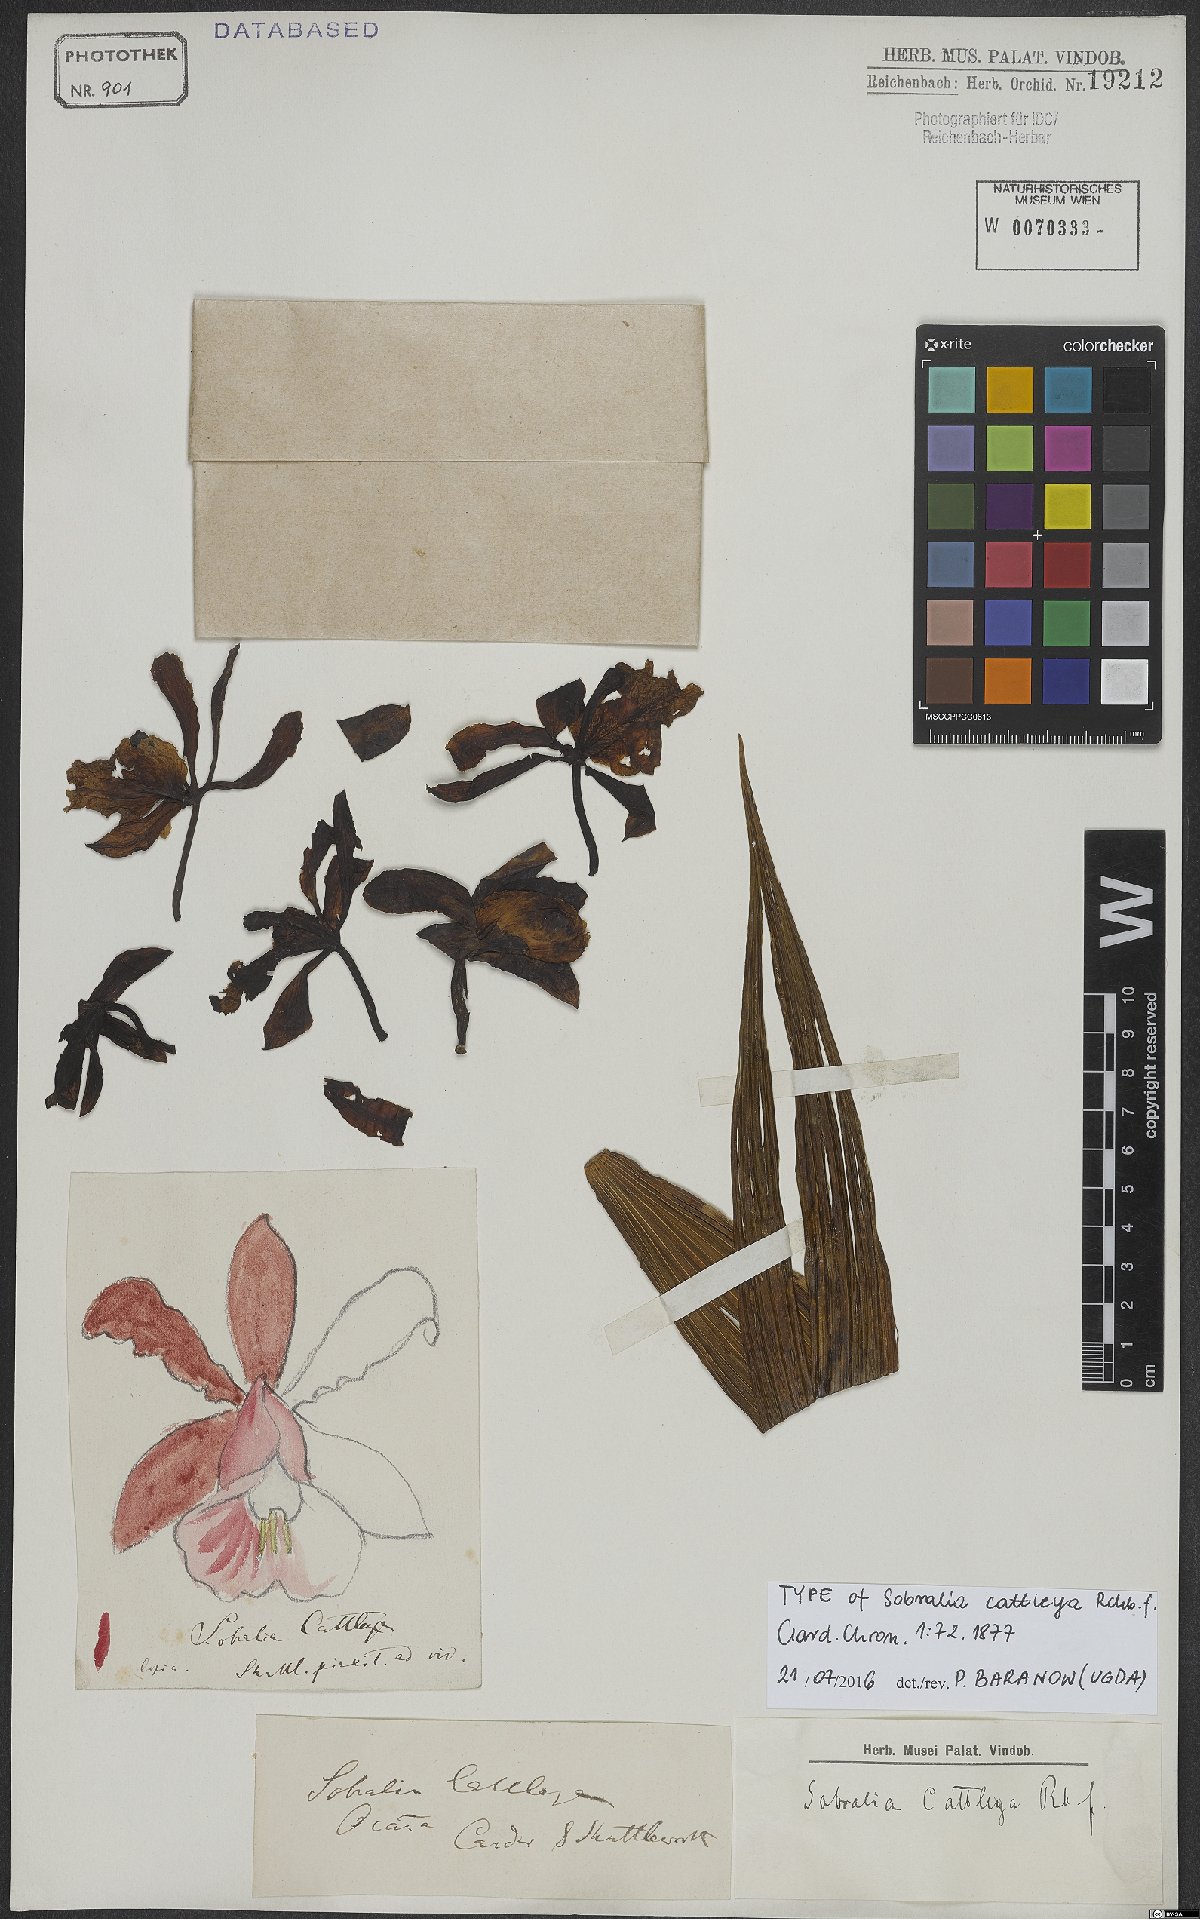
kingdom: Plantae
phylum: Tracheophyta
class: Liliopsida
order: Asparagales
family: Orchidaceae
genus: Sobralia
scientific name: Sobralia cattleya
